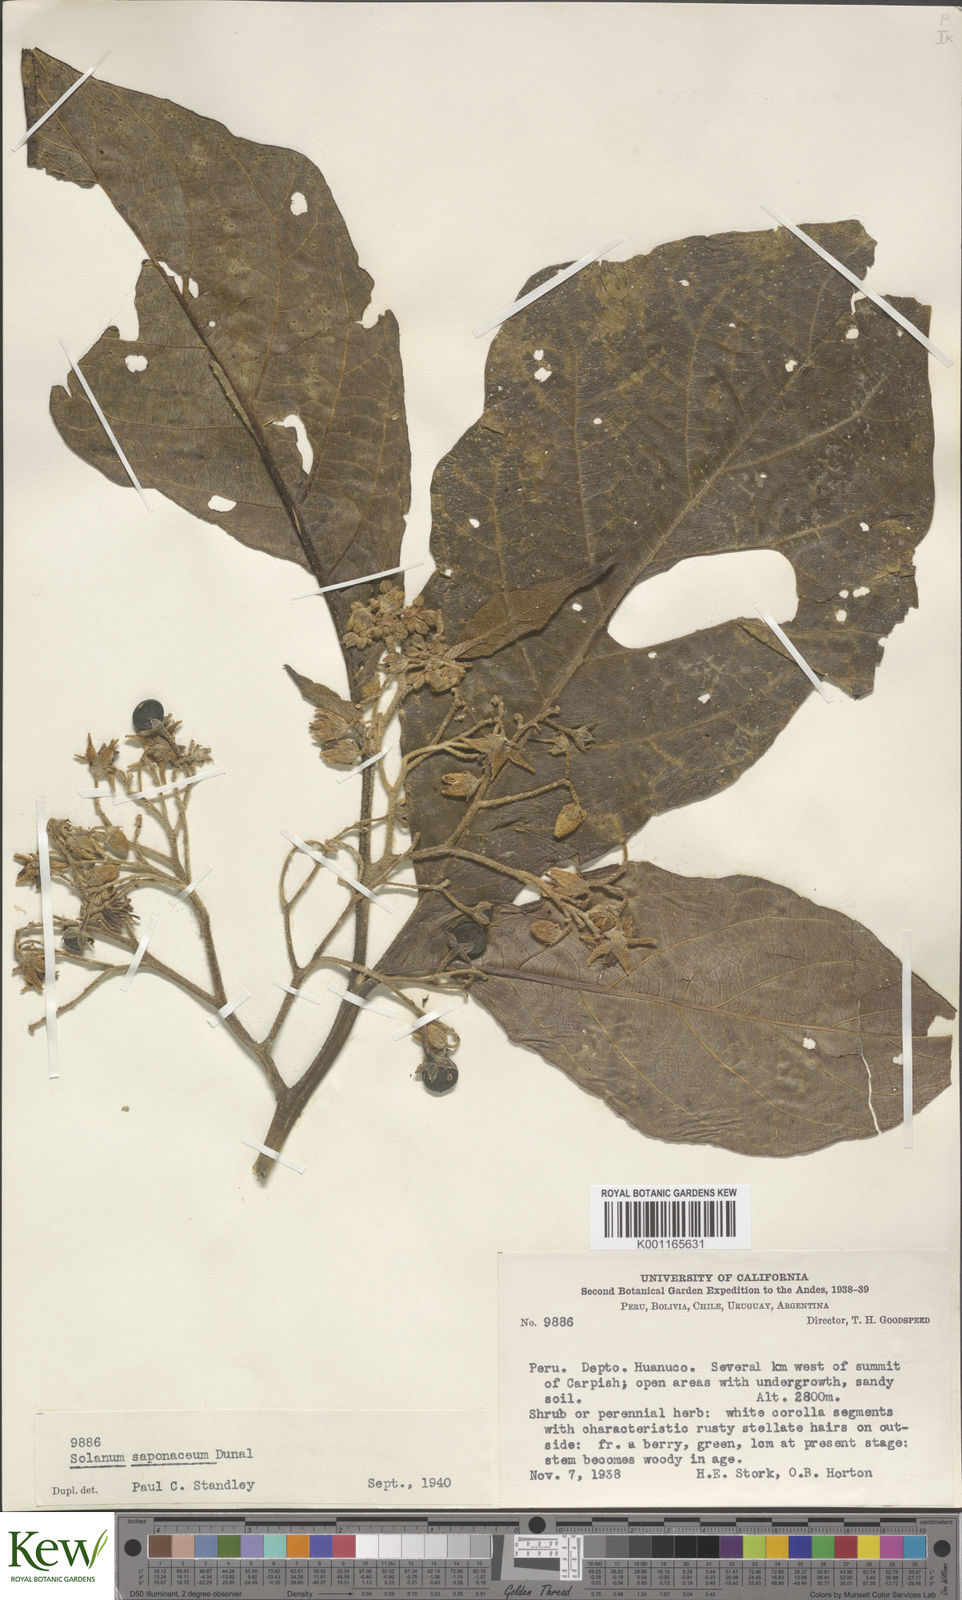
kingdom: Plantae
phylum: Tracheophyta
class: Magnoliopsida
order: Solanales
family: Solanaceae
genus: Solanum
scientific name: Solanum saponaceum
